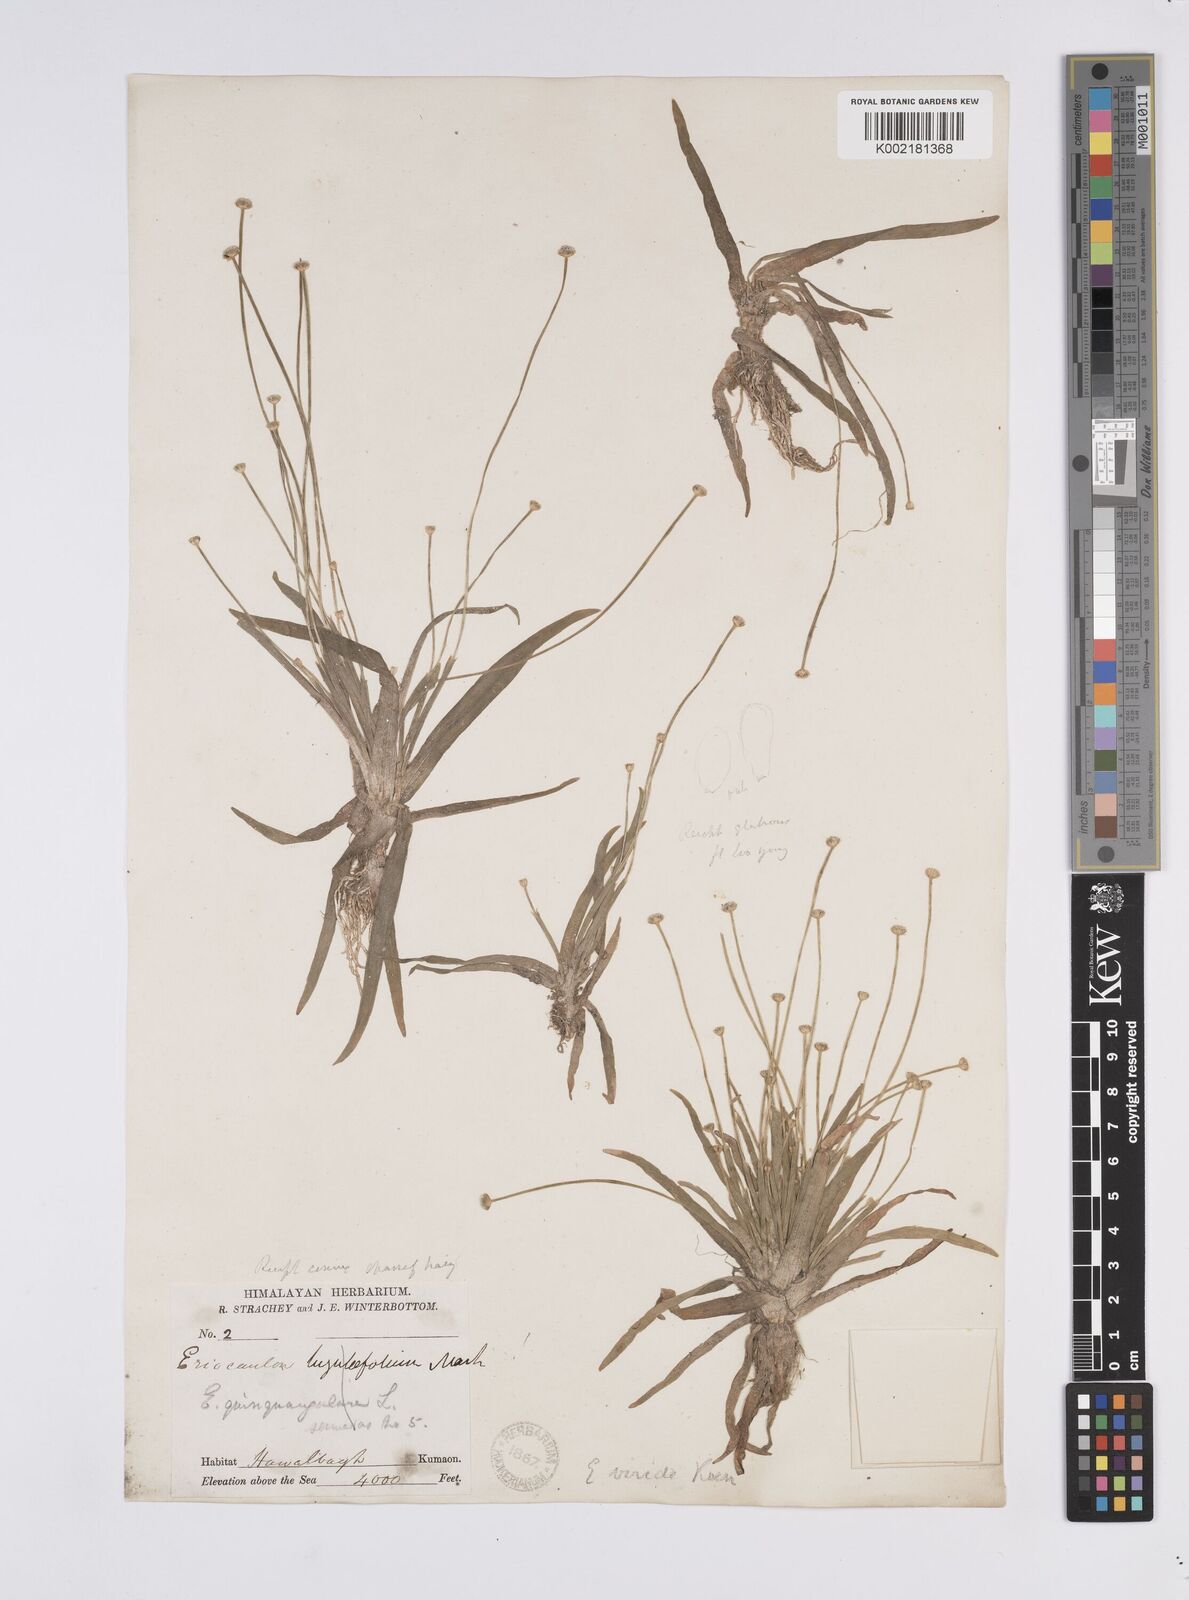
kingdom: Plantae
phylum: Tracheophyta
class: Liliopsida
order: Poales
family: Eriocaulaceae
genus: Eriocaulon
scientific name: Eriocaulon nepalense
